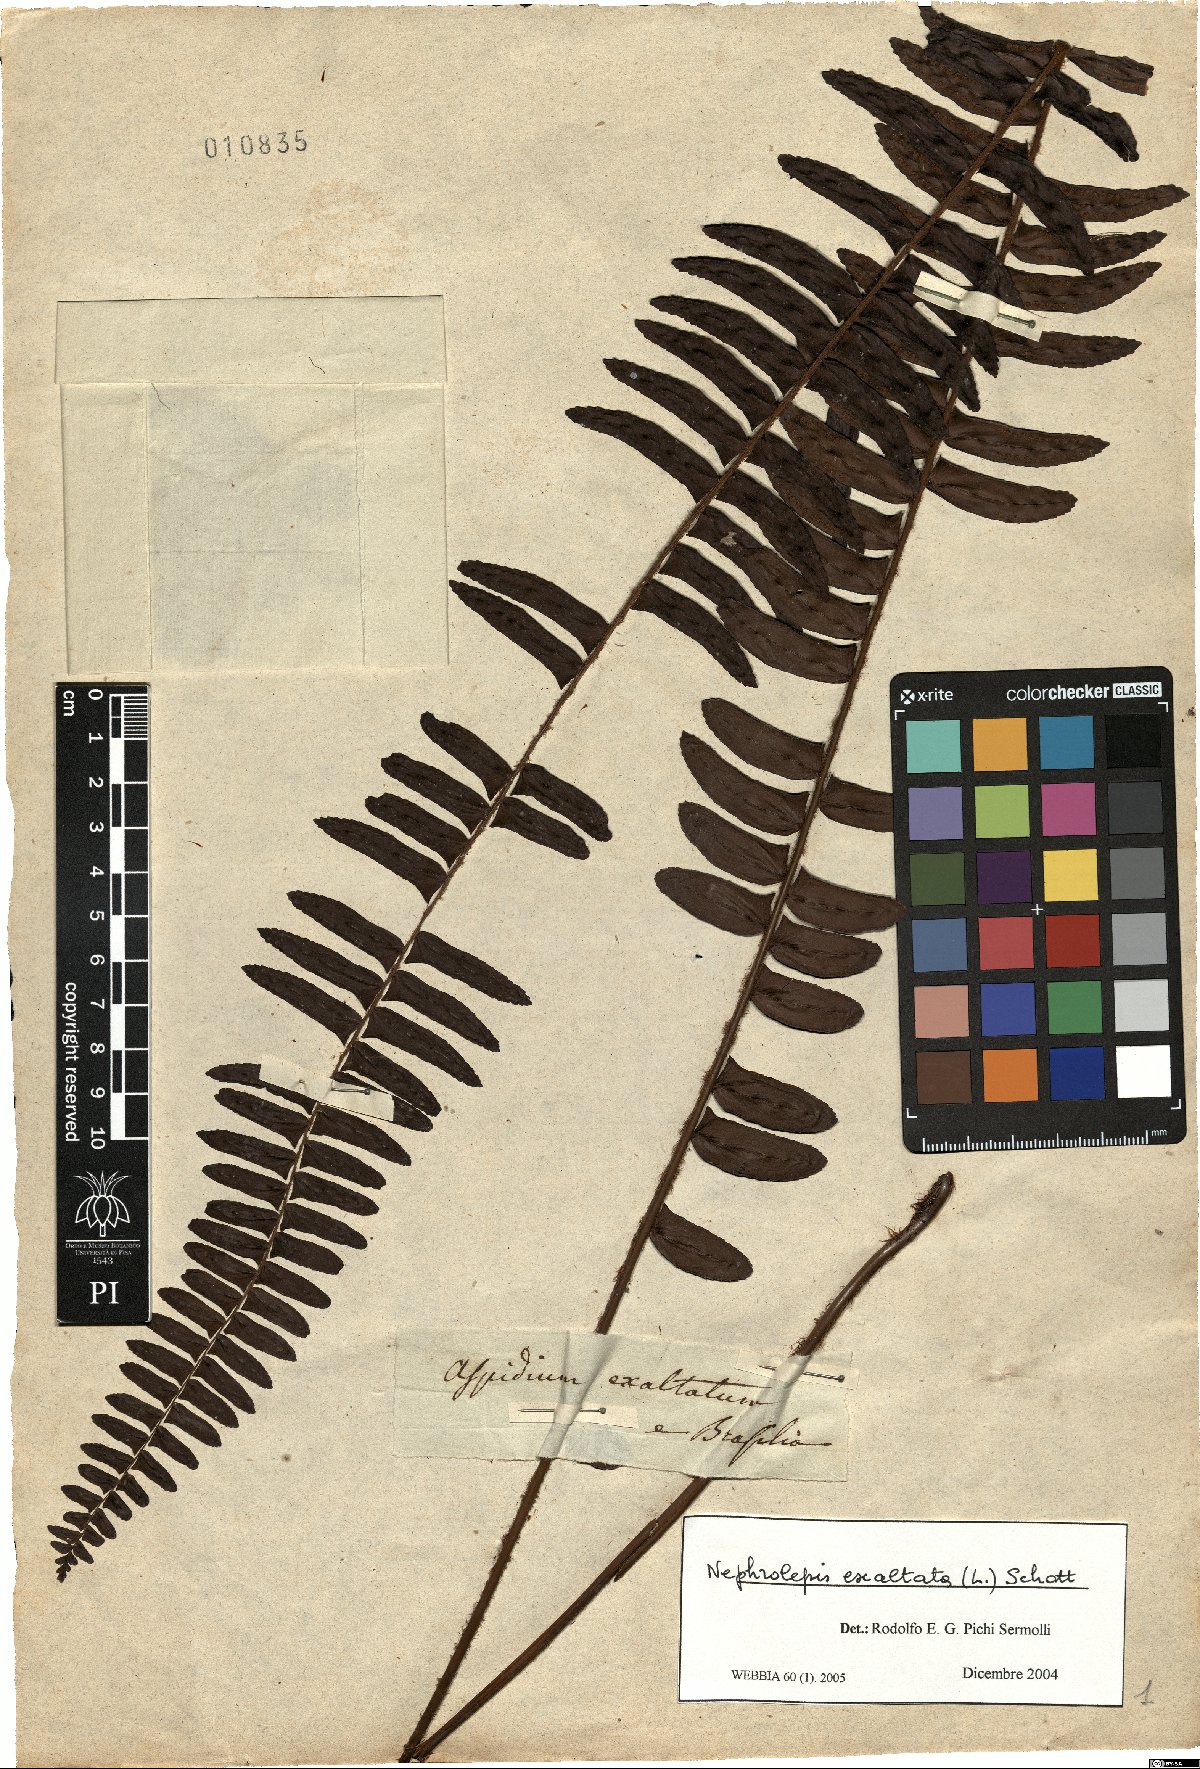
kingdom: Plantae
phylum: Tracheophyta
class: Polypodiopsida
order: Polypodiales
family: Nephrolepidaceae
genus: Nephrolepis
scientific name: Nephrolepis exaltata
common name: Sword fern
